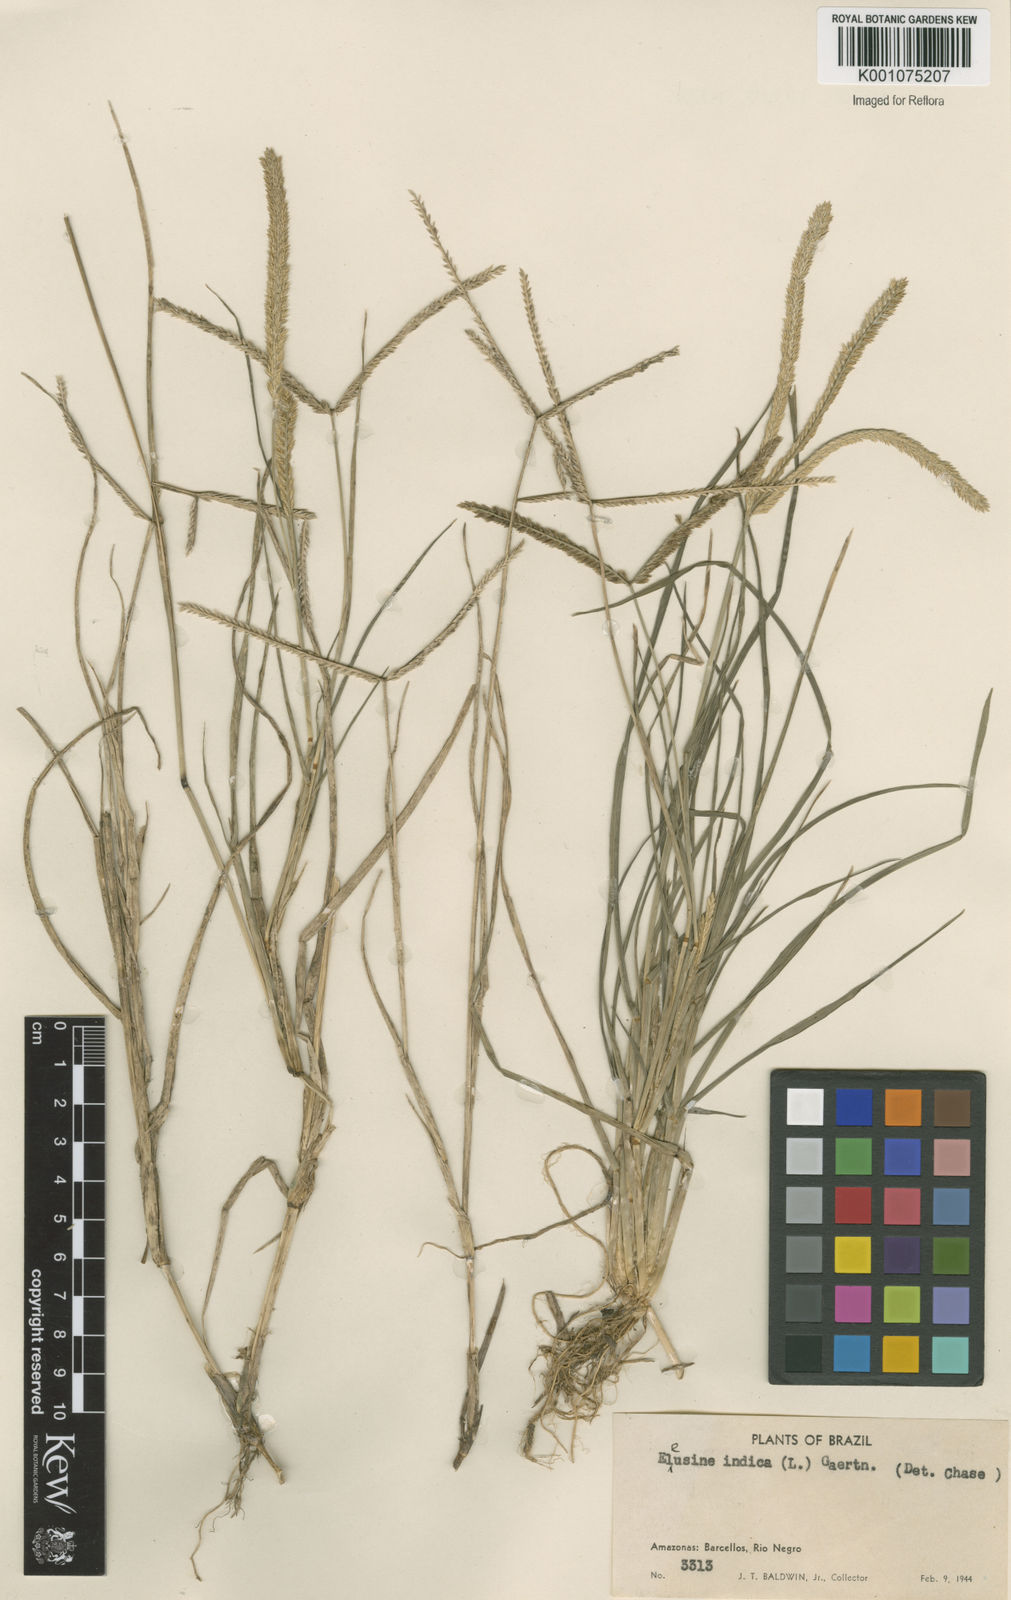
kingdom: Plantae
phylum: Tracheophyta
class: Liliopsida
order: Poales
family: Poaceae
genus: Eleusine
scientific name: Eleusine indica
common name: Yard-grass
